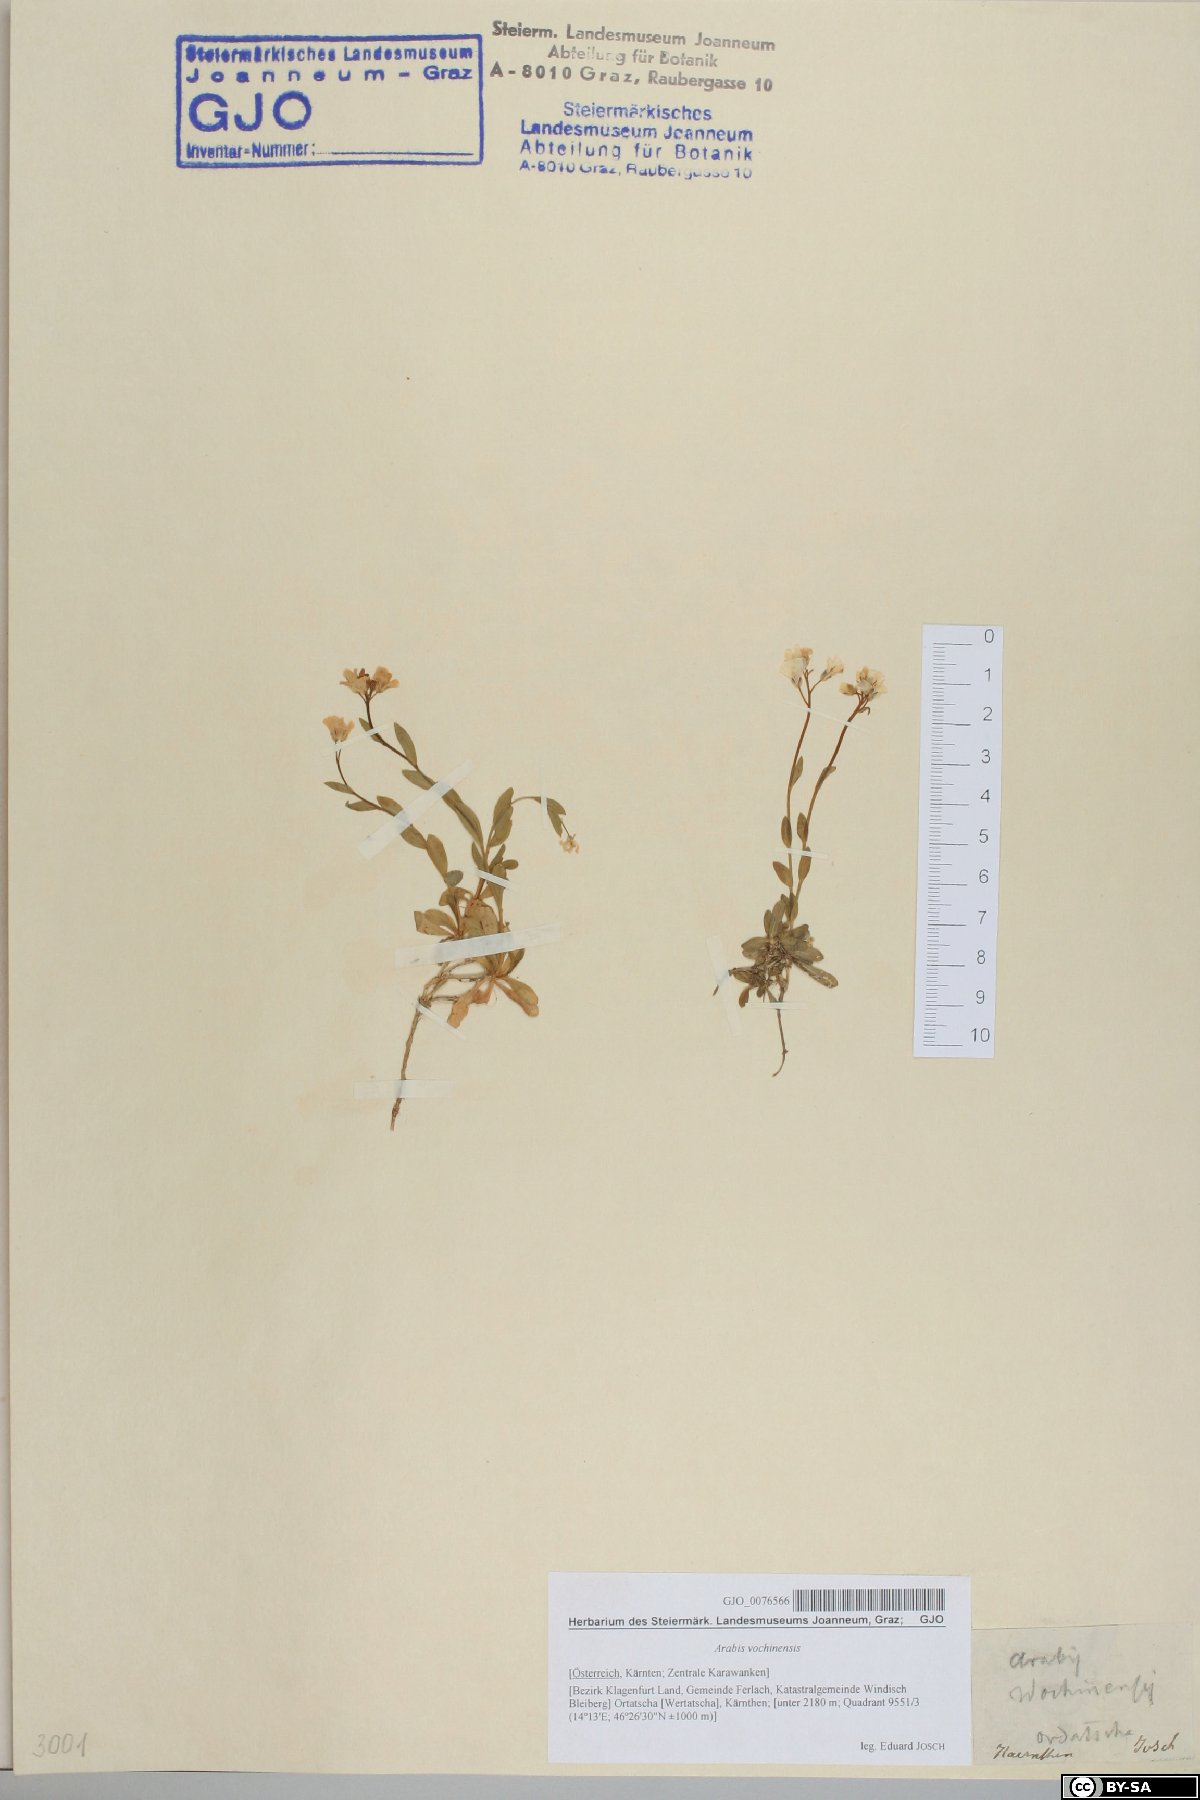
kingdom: Plantae
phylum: Tracheophyta
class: Magnoliopsida
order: Brassicales
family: Brassicaceae
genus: Arabis
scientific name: Arabis vochinensis
